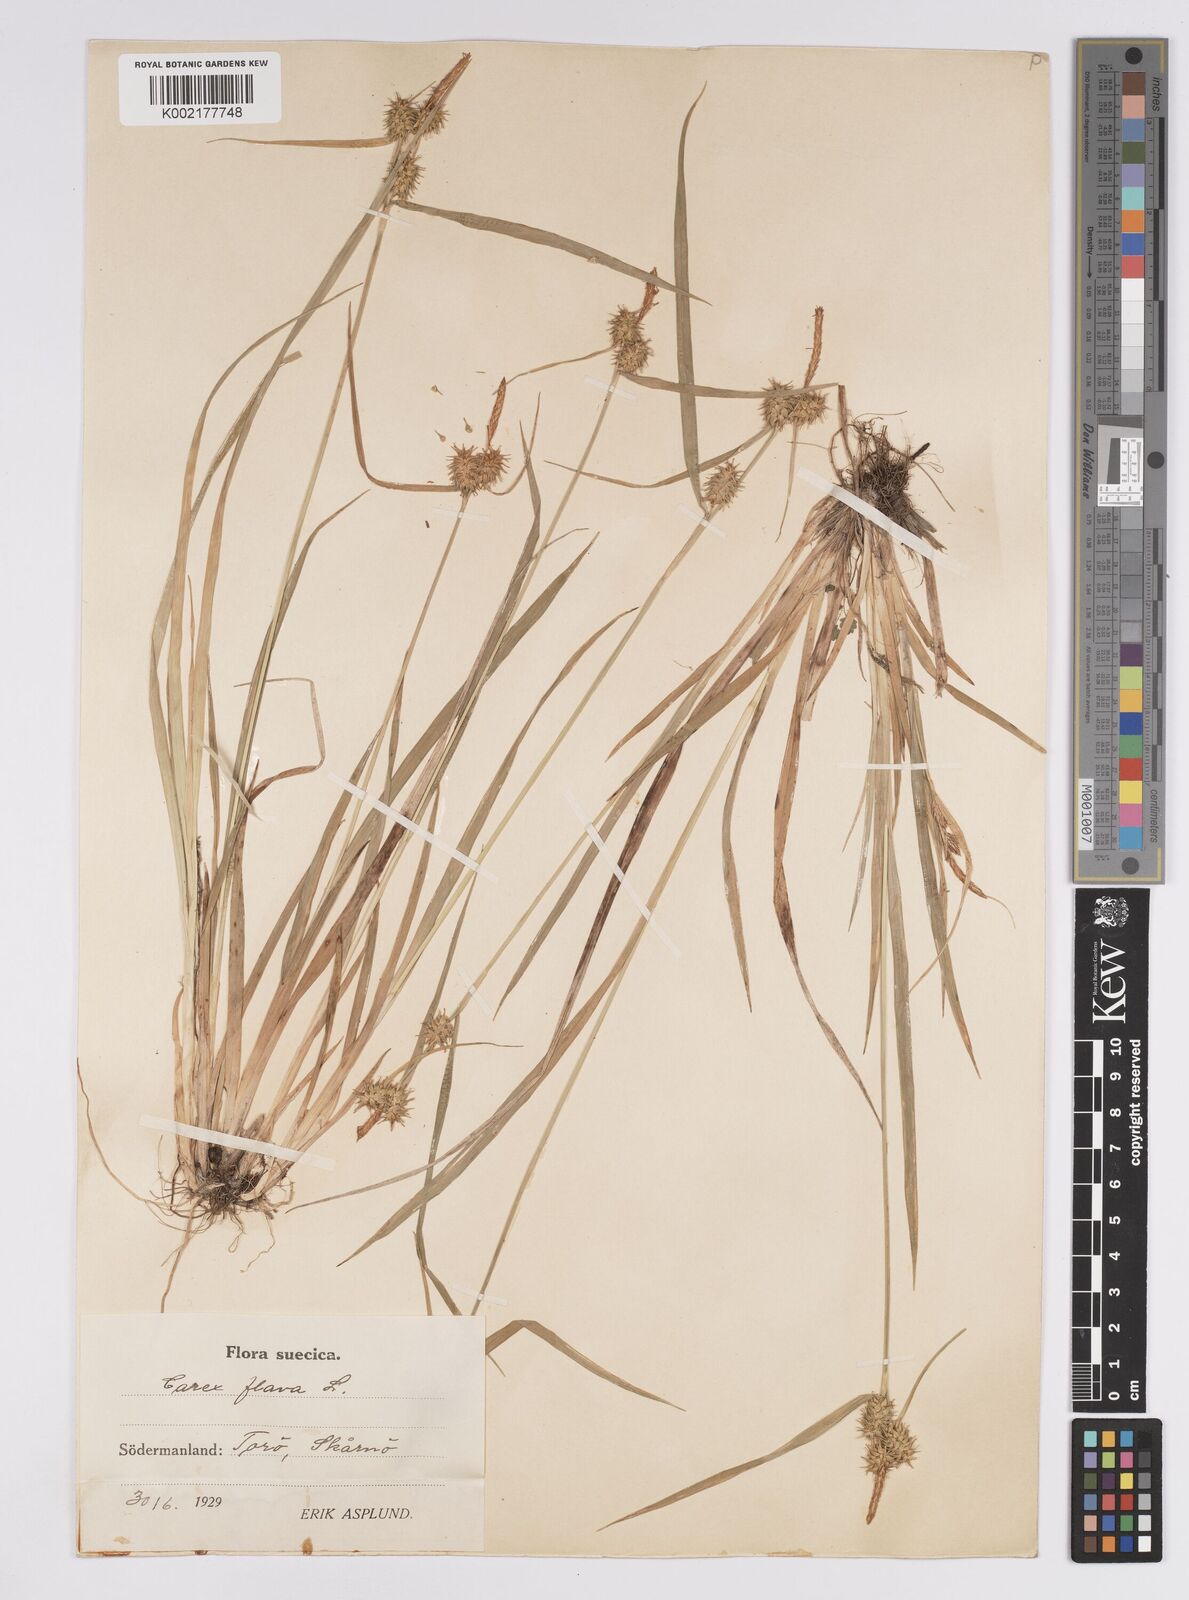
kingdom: Plantae
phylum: Tracheophyta
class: Liliopsida
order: Poales
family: Cyperaceae
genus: Carex
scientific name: Carex flava
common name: Large yellow-sedge
